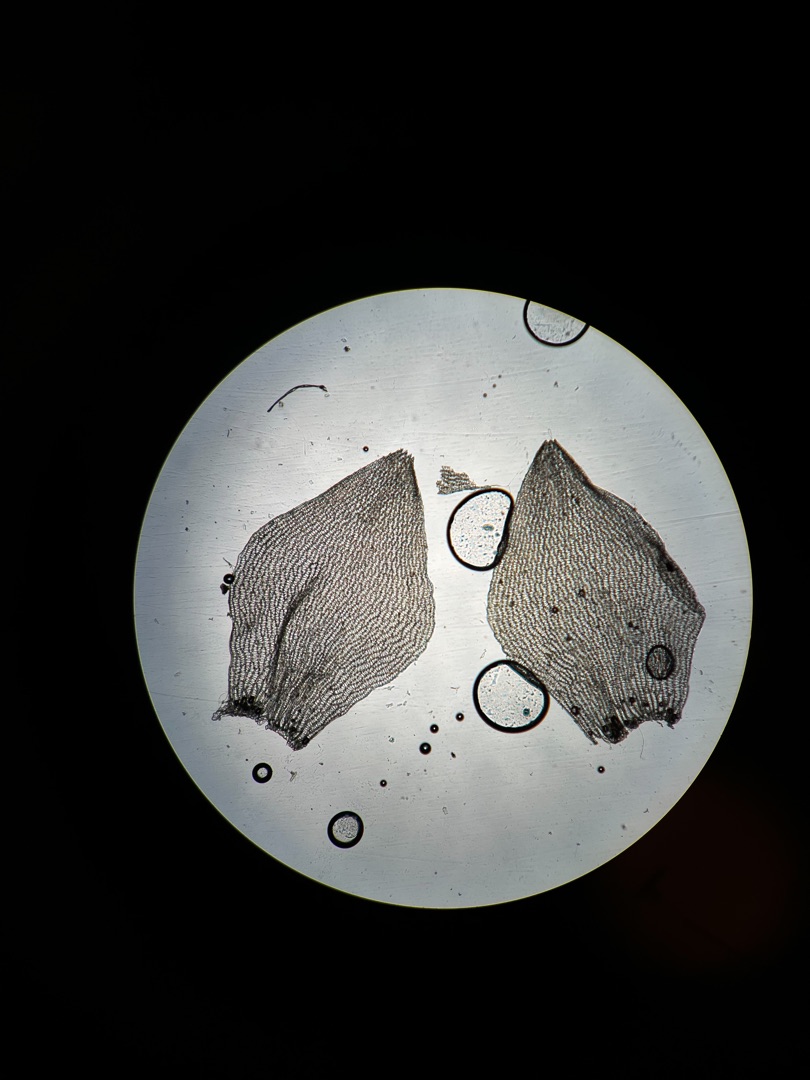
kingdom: Plantae
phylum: Bryophyta
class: Sphagnopsida
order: Sphagnales
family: Sphagnaceae
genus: Sphagnum
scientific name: Sphagnum molle
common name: Blød tørvemos
